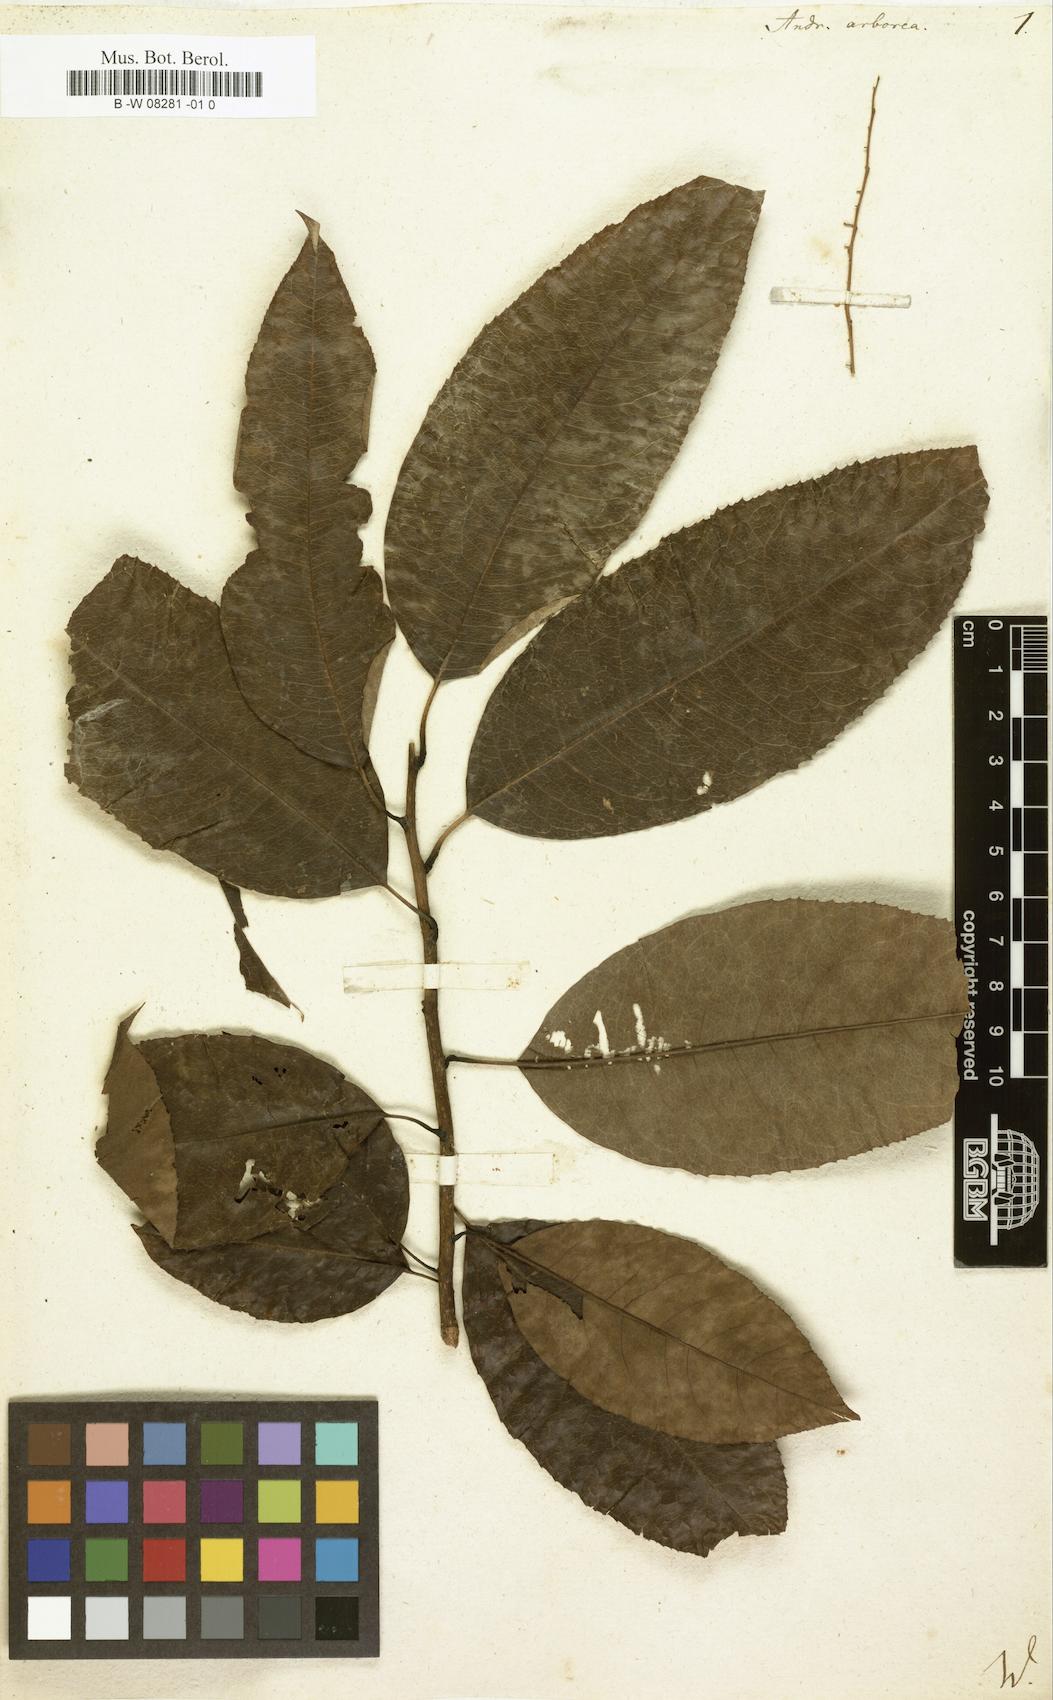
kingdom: Plantae
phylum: Tracheophyta
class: Magnoliopsida
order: Ericales
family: Ericaceae
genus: Oxydendrum
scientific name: Oxydendrum arboreum
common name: Sourwood
